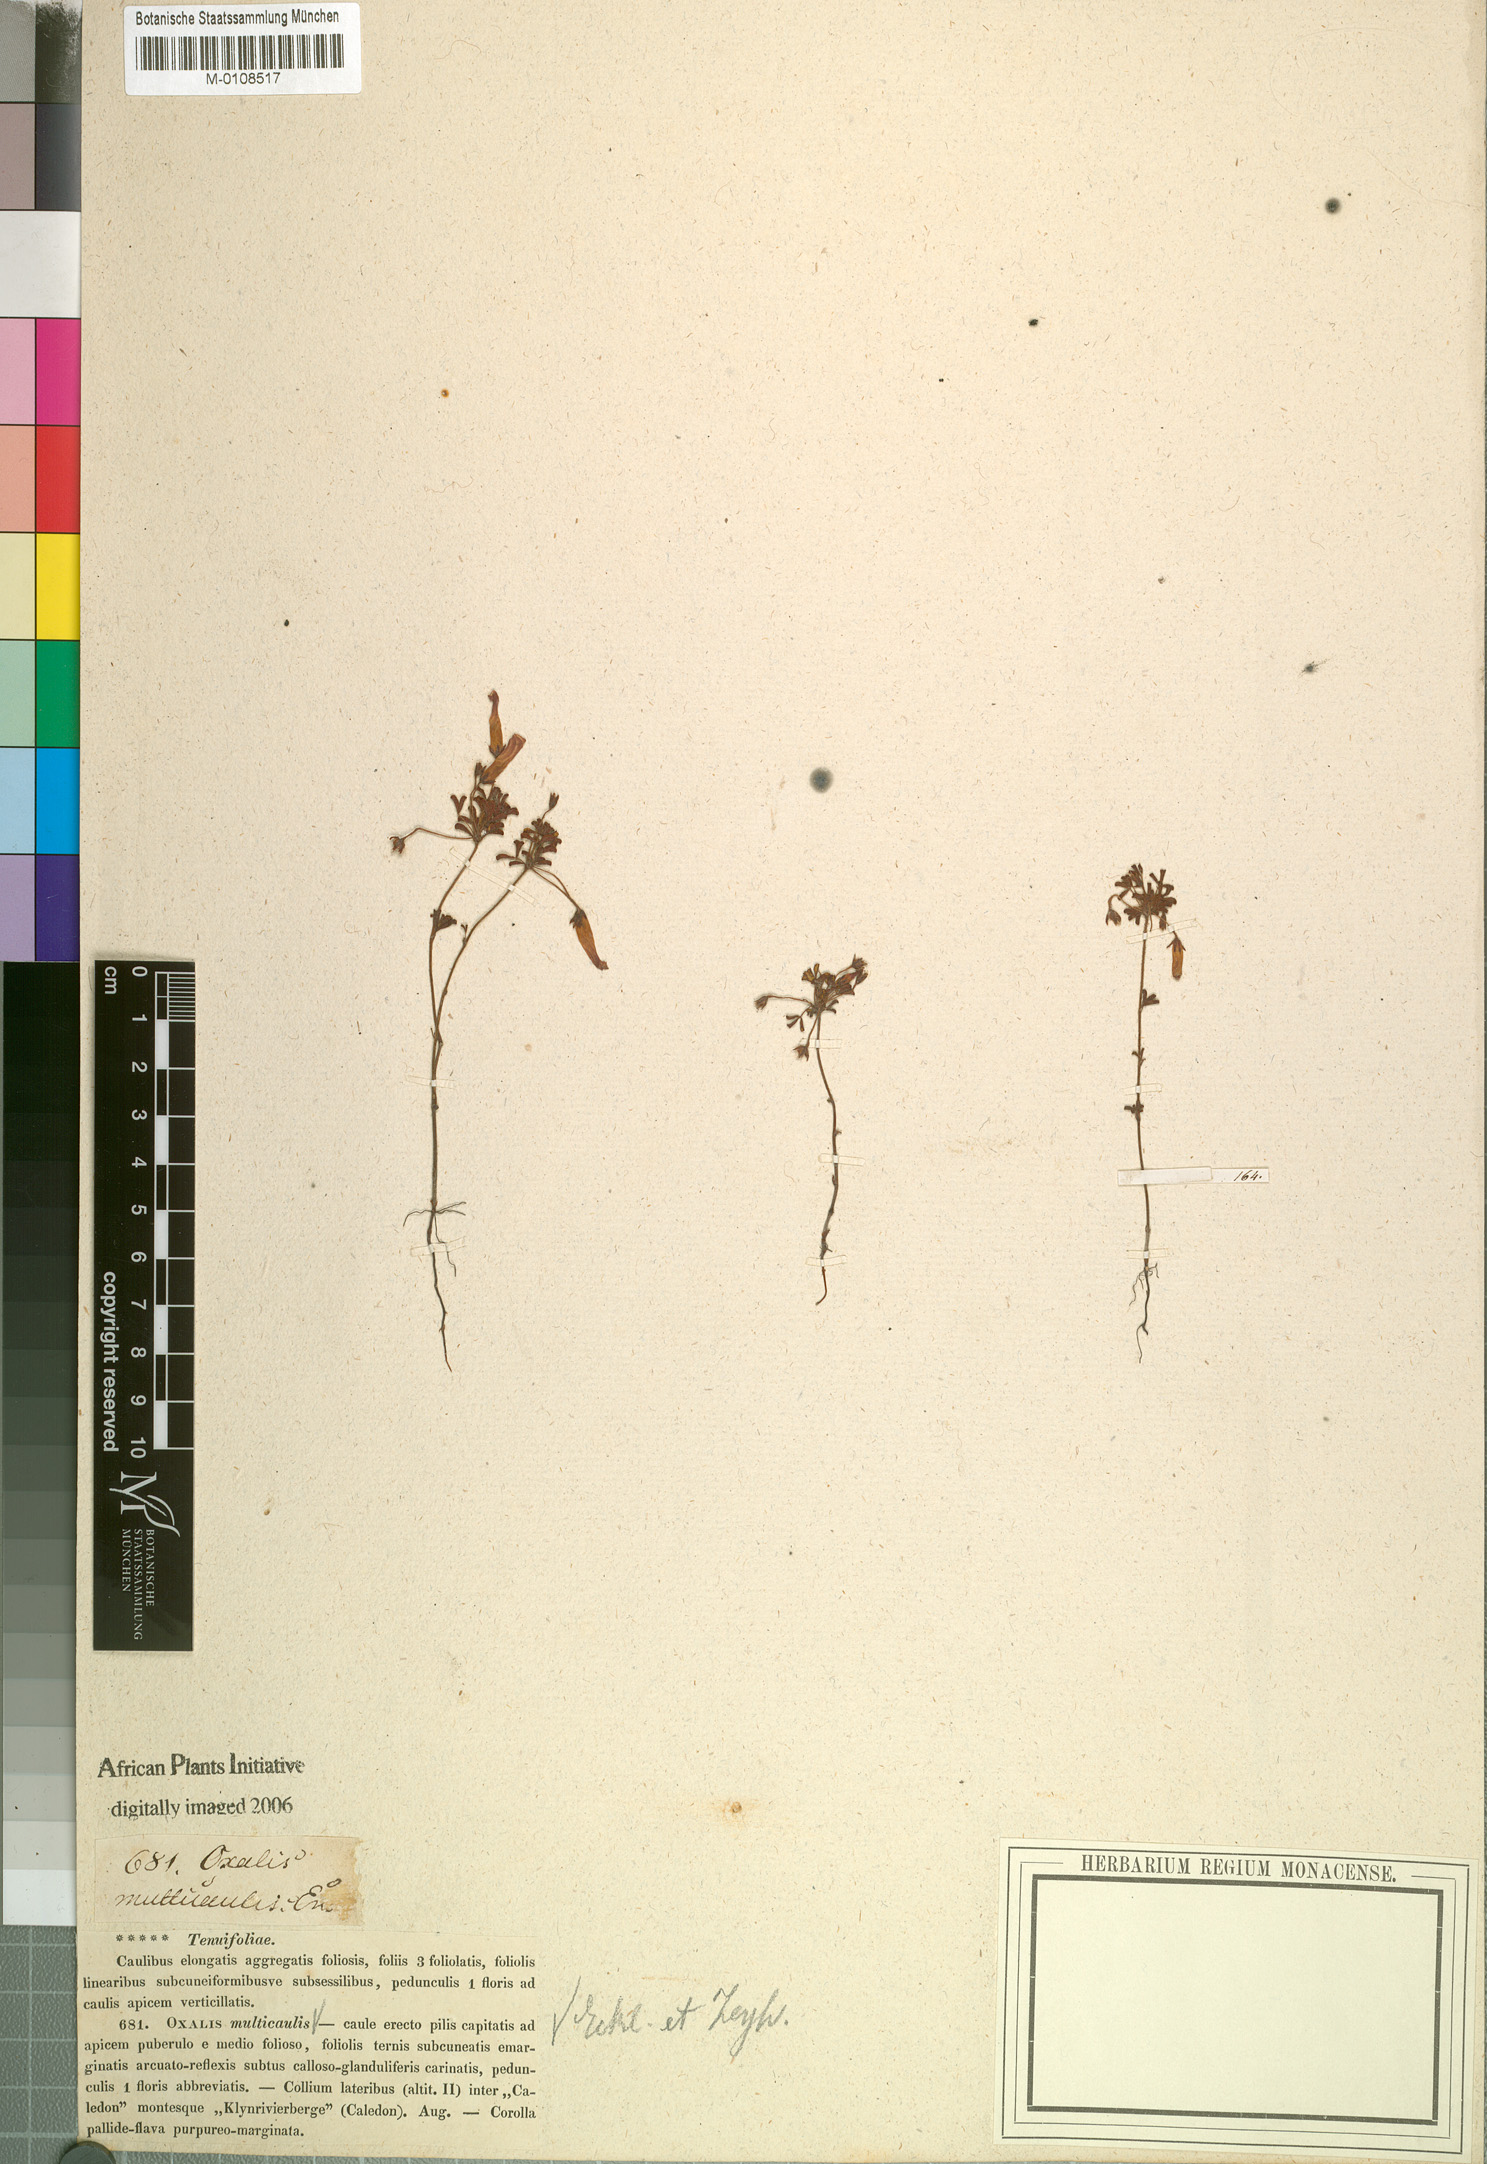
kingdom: Plantae
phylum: Tracheophyta
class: Magnoliopsida
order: Oxalidales
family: Oxalidaceae
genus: Oxalis
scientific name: Oxalis multicaulis
